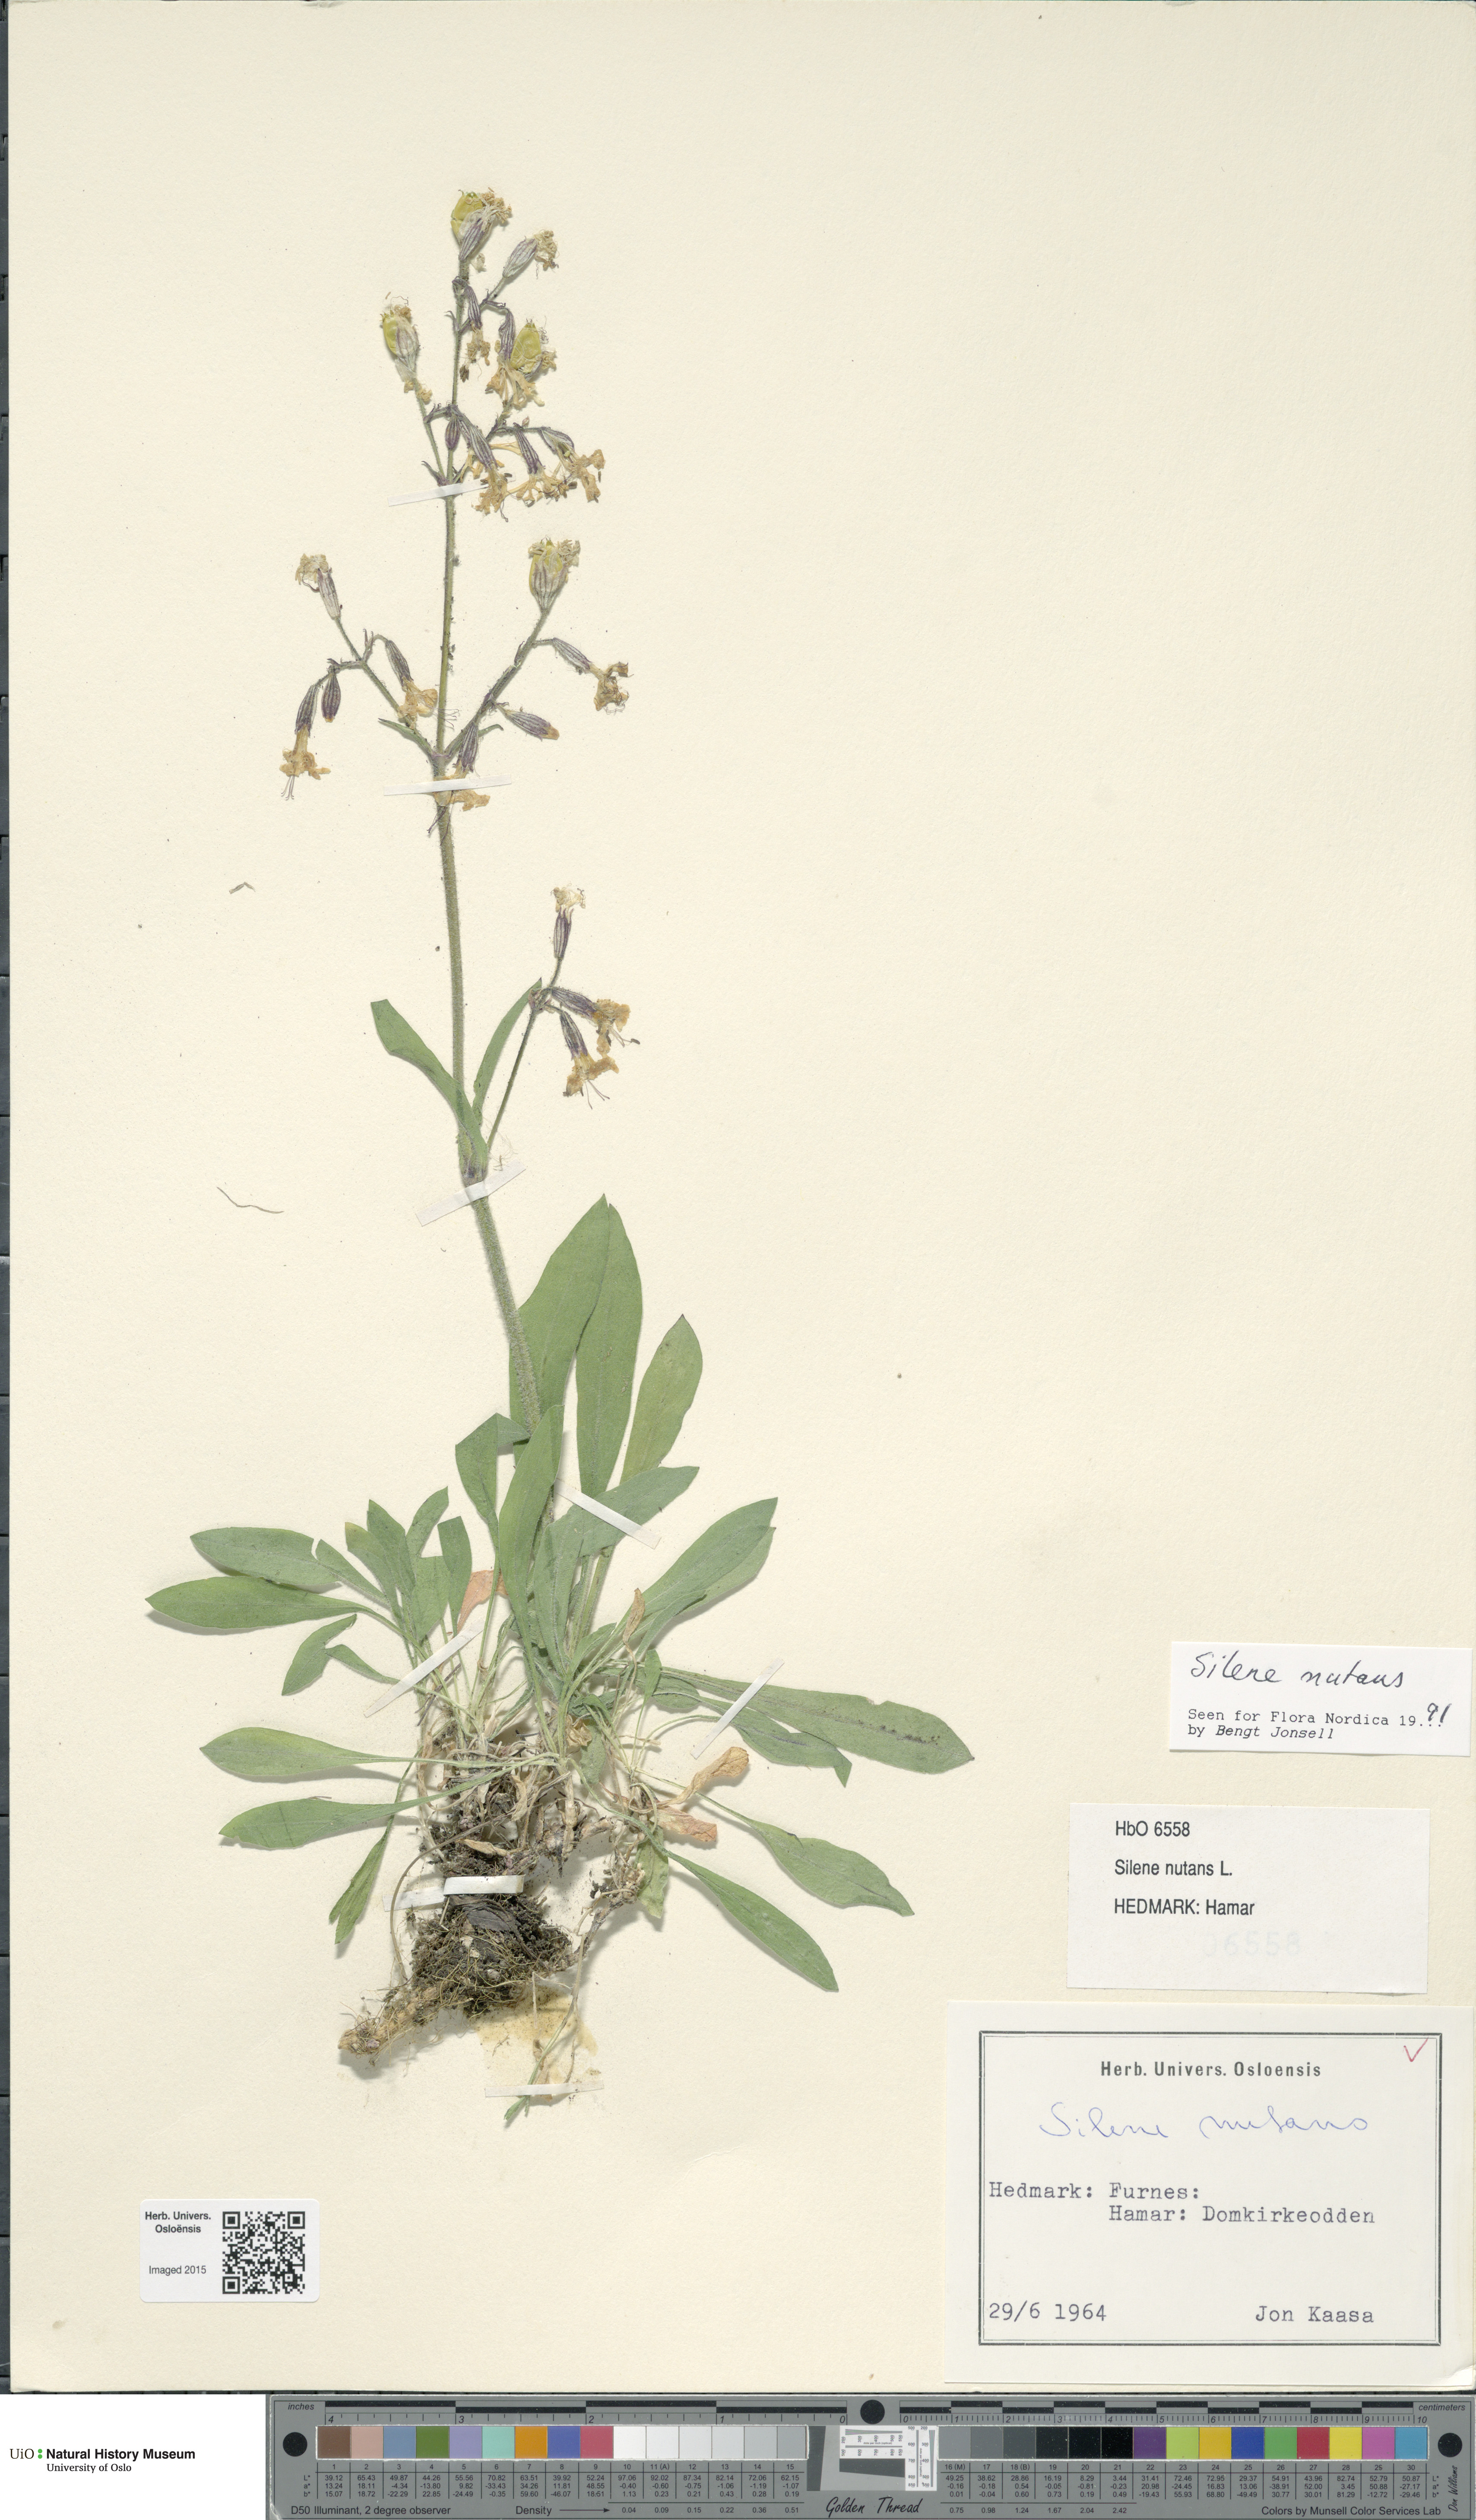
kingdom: Plantae
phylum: Tracheophyta
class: Magnoliopsida
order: Caryophyllales
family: Caryophyllaceae
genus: Silene
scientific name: Silene nutans
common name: Nottingham catchfly
